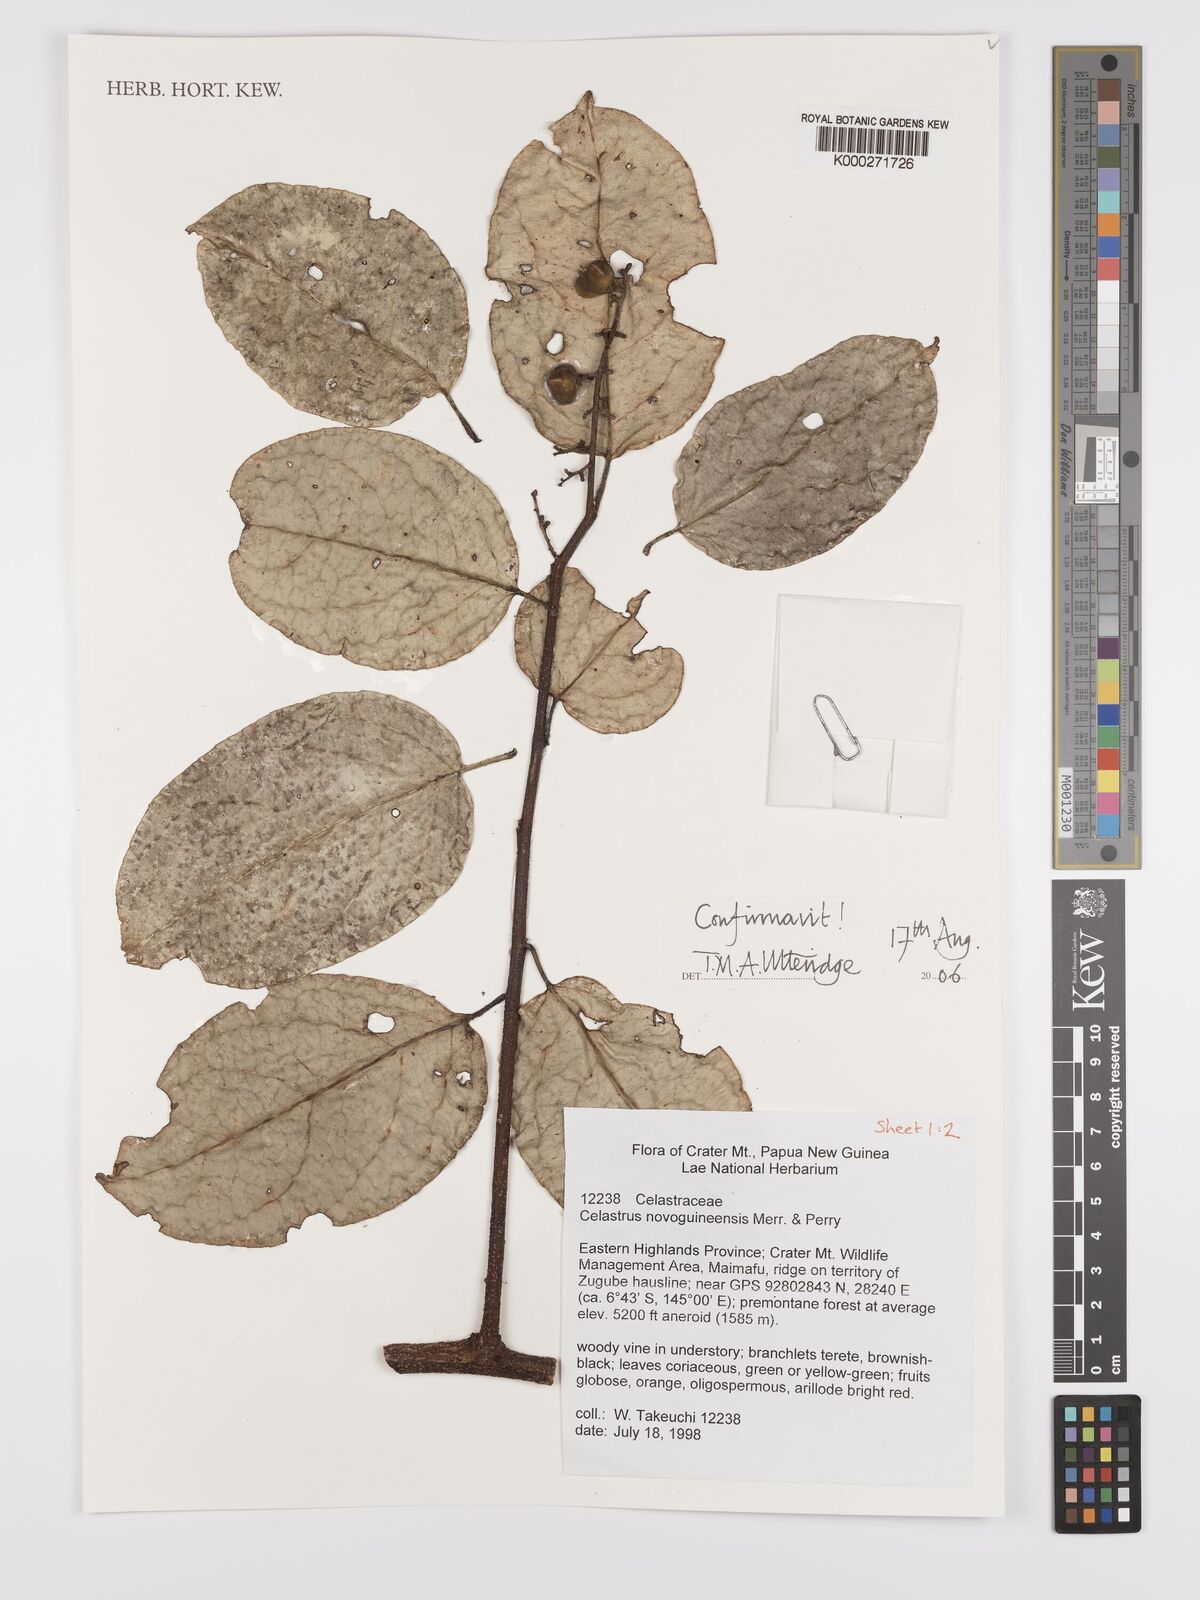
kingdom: Plantae
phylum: Tracheophyta
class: Magnoliopsida
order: Celastrales
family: Celastraceae
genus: Celastrus
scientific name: Celastrus novoguineensis
